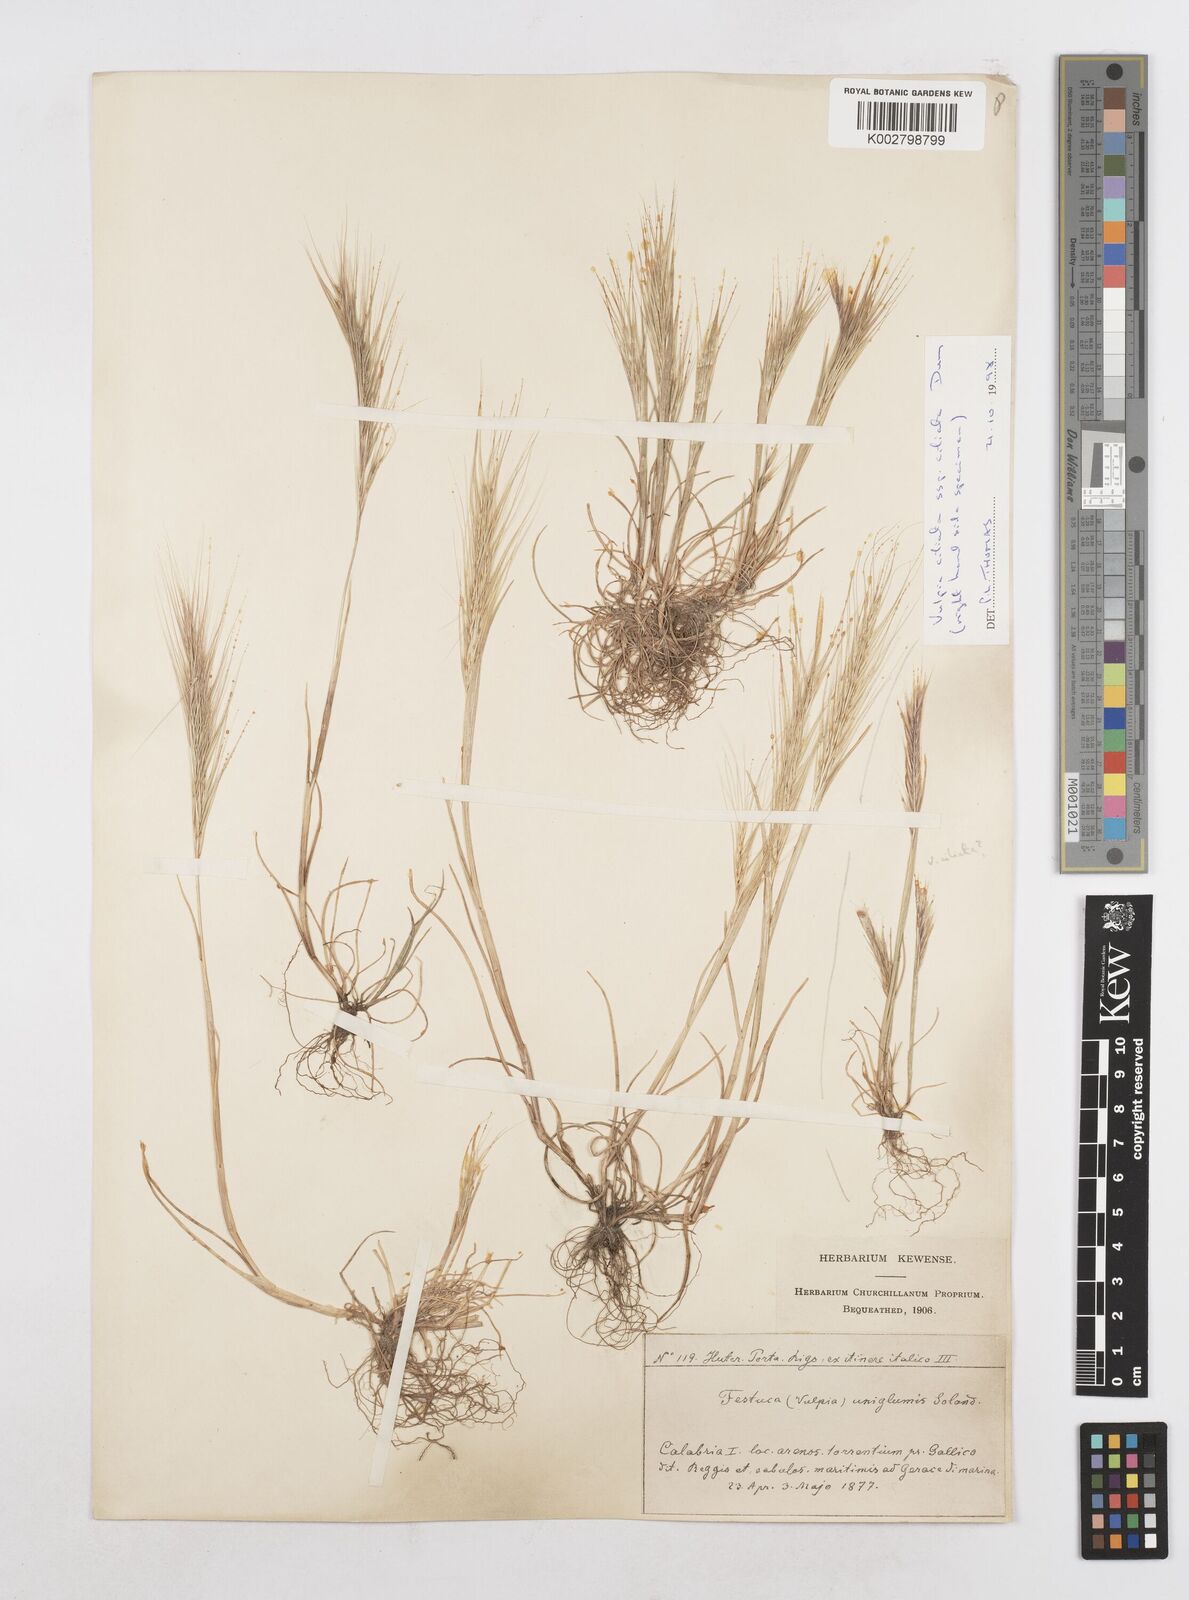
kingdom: Plantae
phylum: Tracheophyta
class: Liliopsida
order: Poales
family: Poaceae
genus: Festuca
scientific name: Festuca fasciculata
